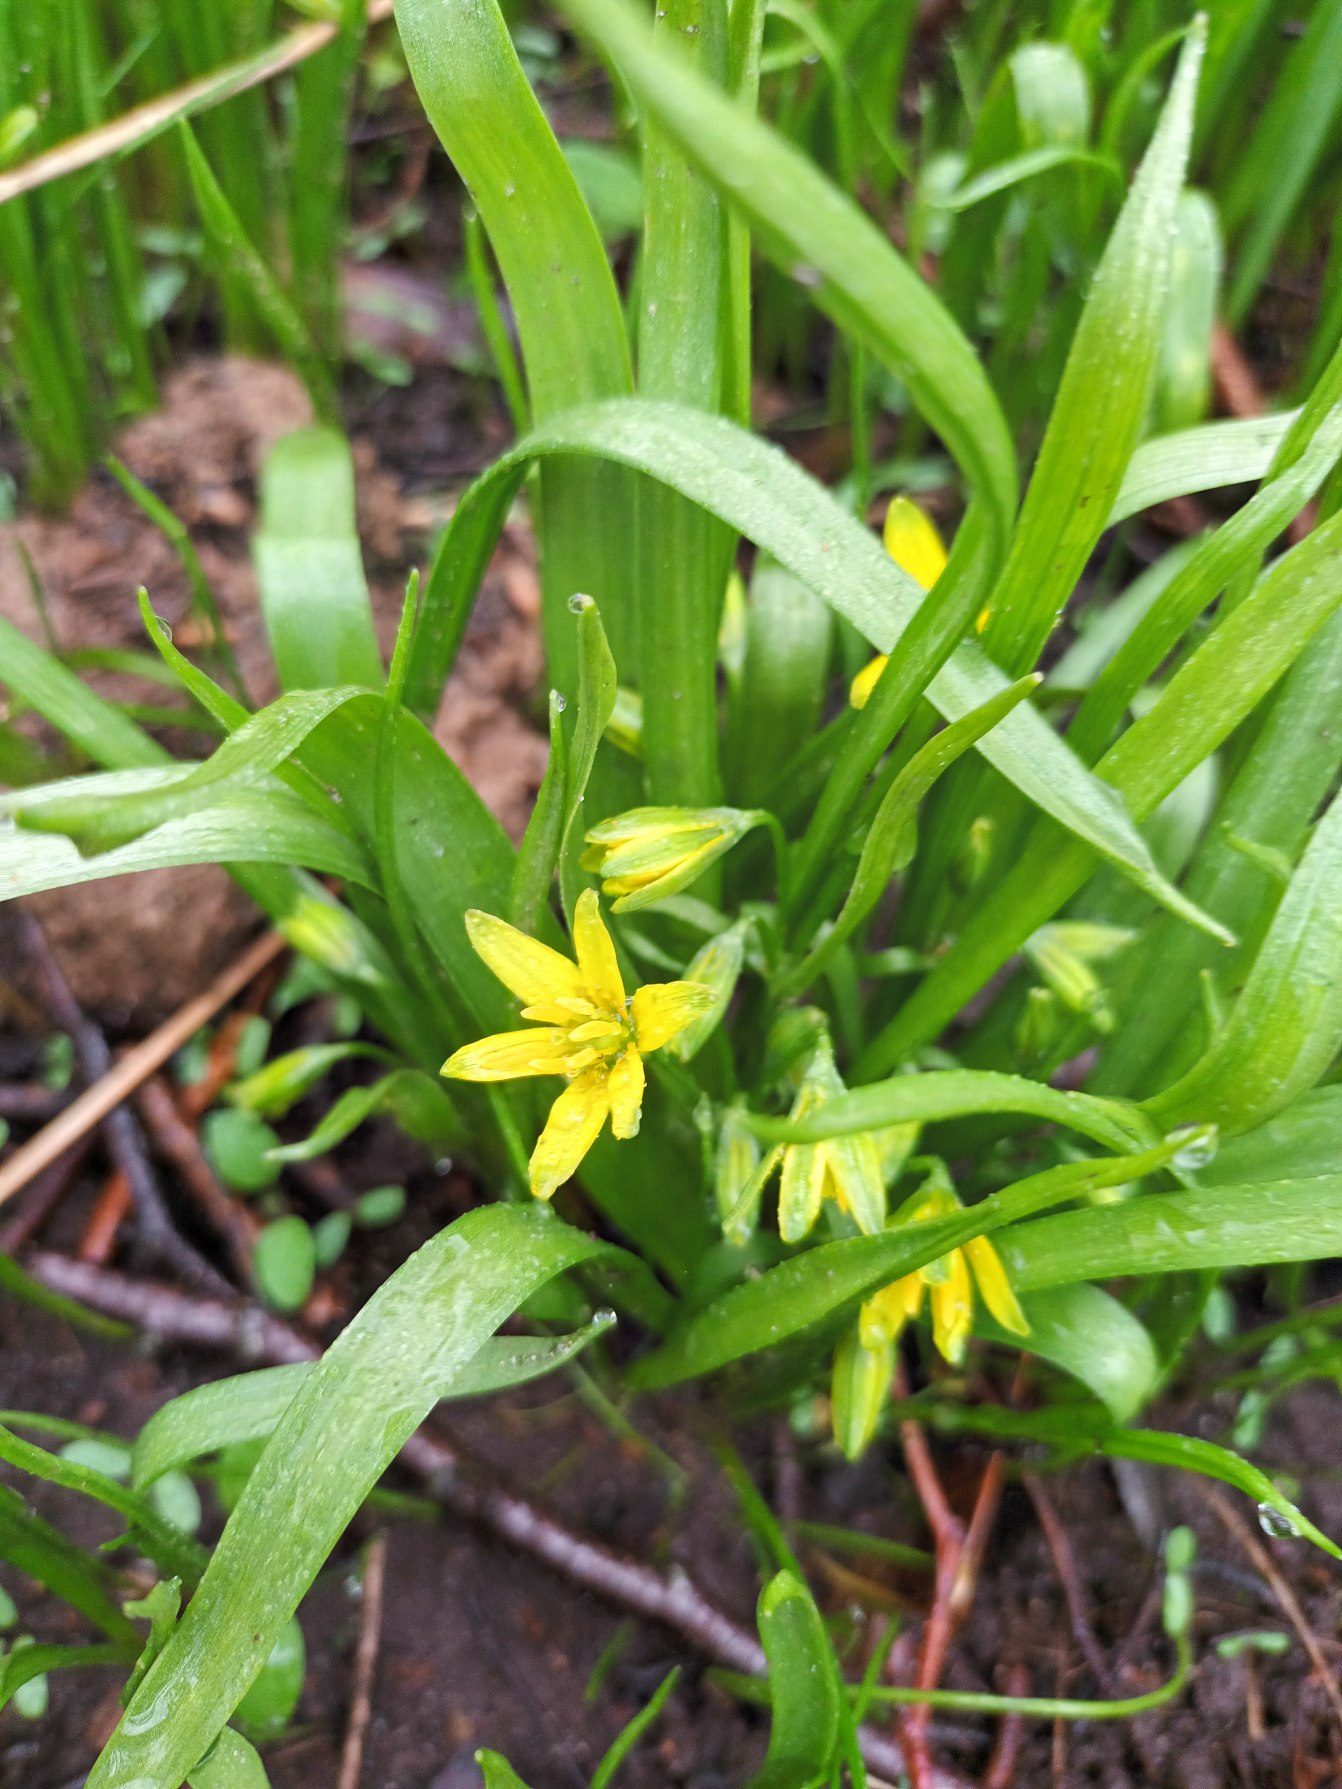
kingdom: Plantae
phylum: Tracheophyta
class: Liliopsida
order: Liliales
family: Liliaceae
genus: Gagea
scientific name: Gagea lutea
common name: Almindelig guldstjerne
